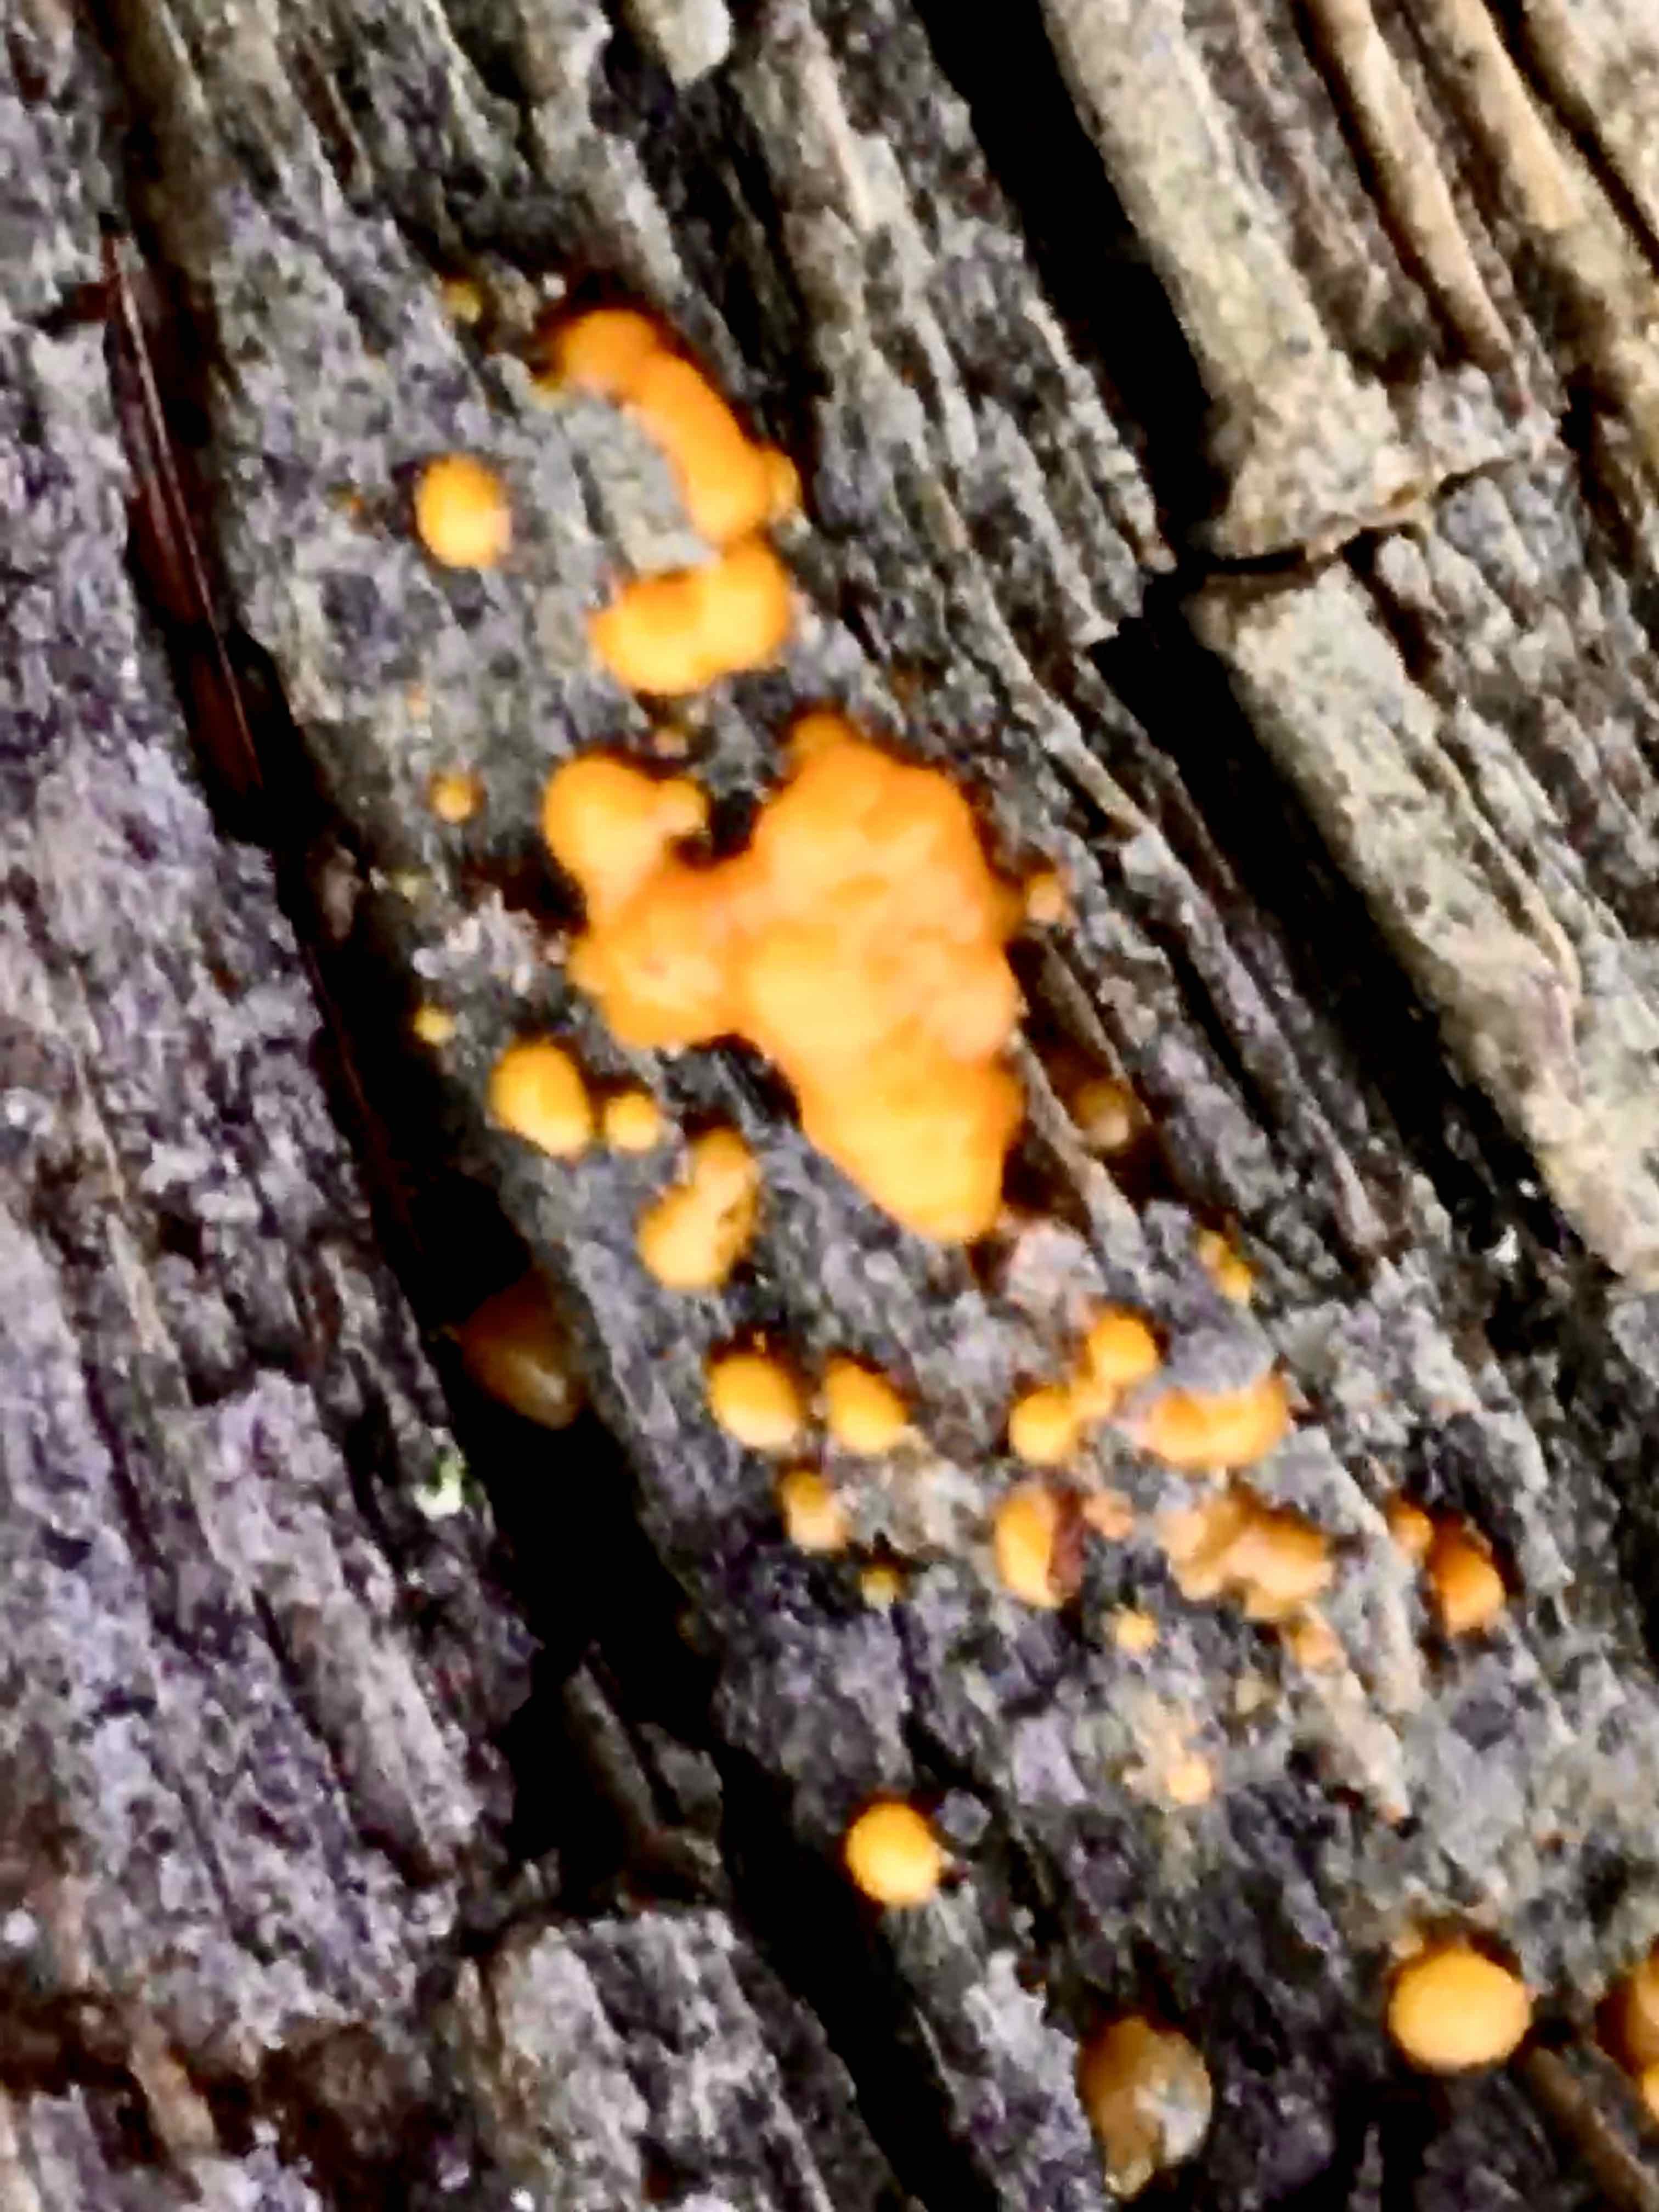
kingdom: Fungi
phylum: Basidiomycota
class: Dacrymycetes
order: Dacrymycetales
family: Dacrymycetaceae
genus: Dacrymyces
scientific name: Dacrymyces stillatus
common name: almindelig tåresvamp
